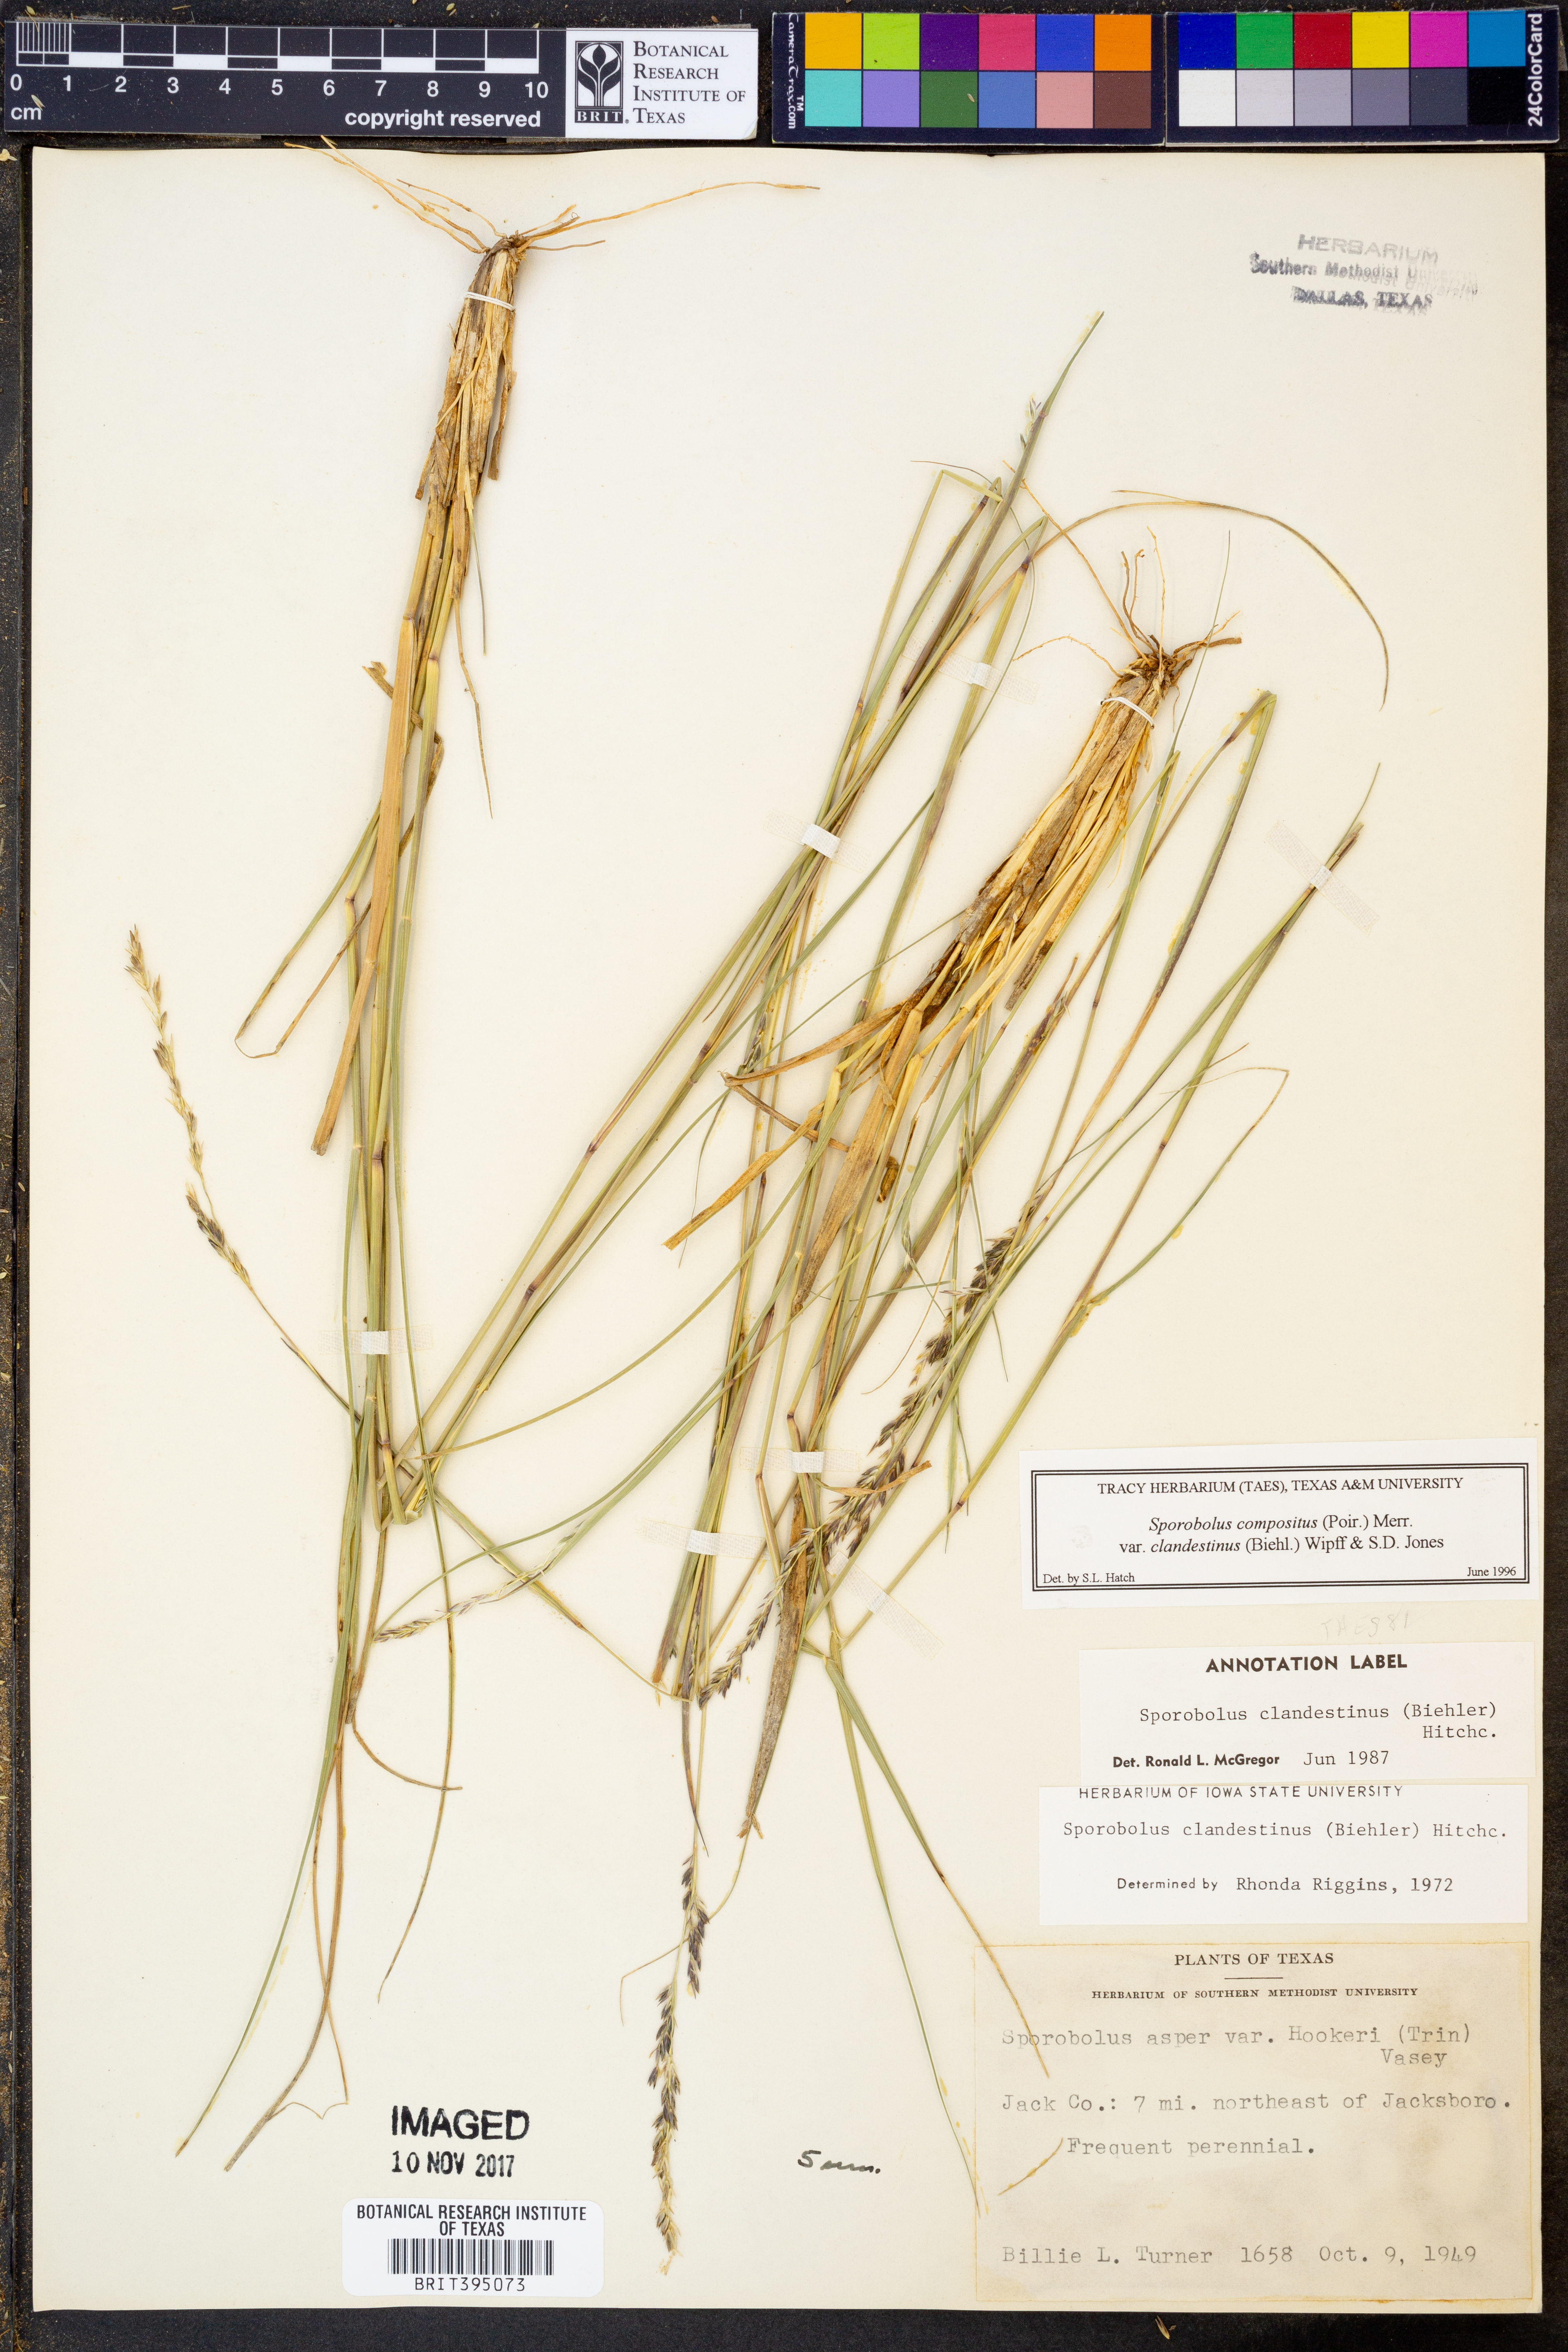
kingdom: Plantae
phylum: Tracheophyta
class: Liliopsida
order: Poales
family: Poaceae
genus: Sporobolus
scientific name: Sporobolus compositus
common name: Rough dropseed
